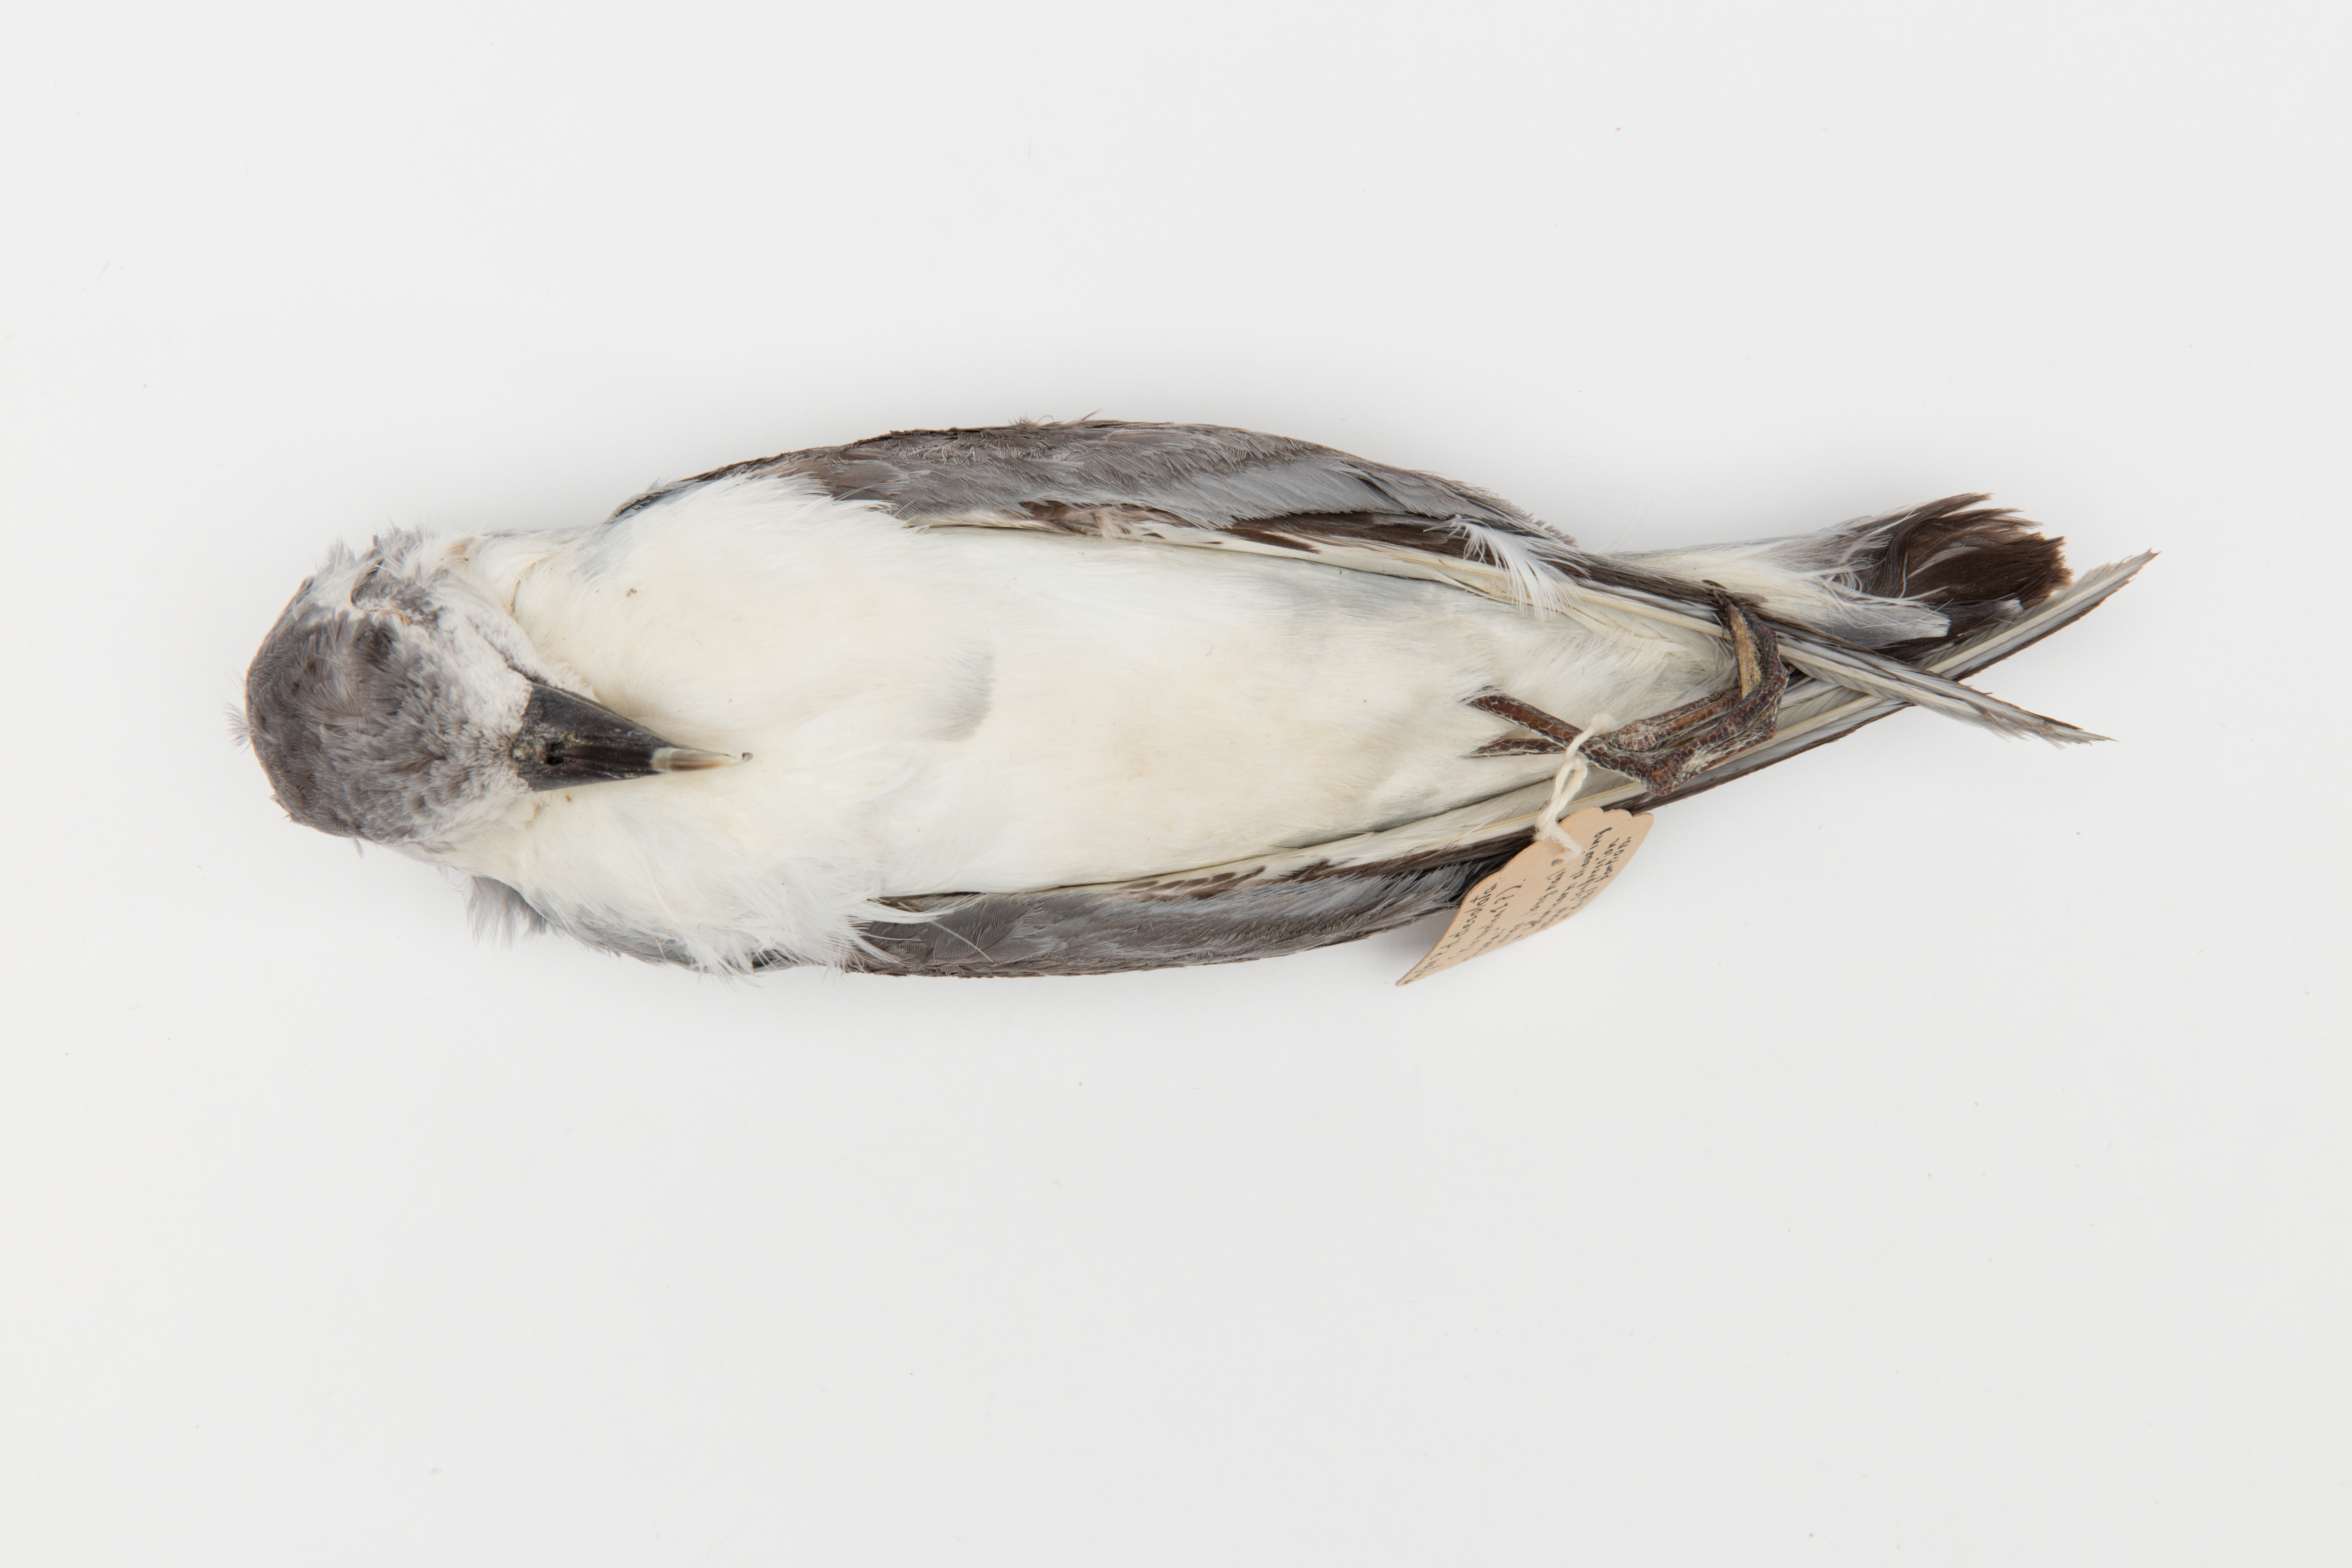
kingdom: Animalia
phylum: Chordata
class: Aves
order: Procellariiformes
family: Procellariidae
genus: Pachyptila
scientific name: Pachyptila desolata
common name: Antarctic prion
